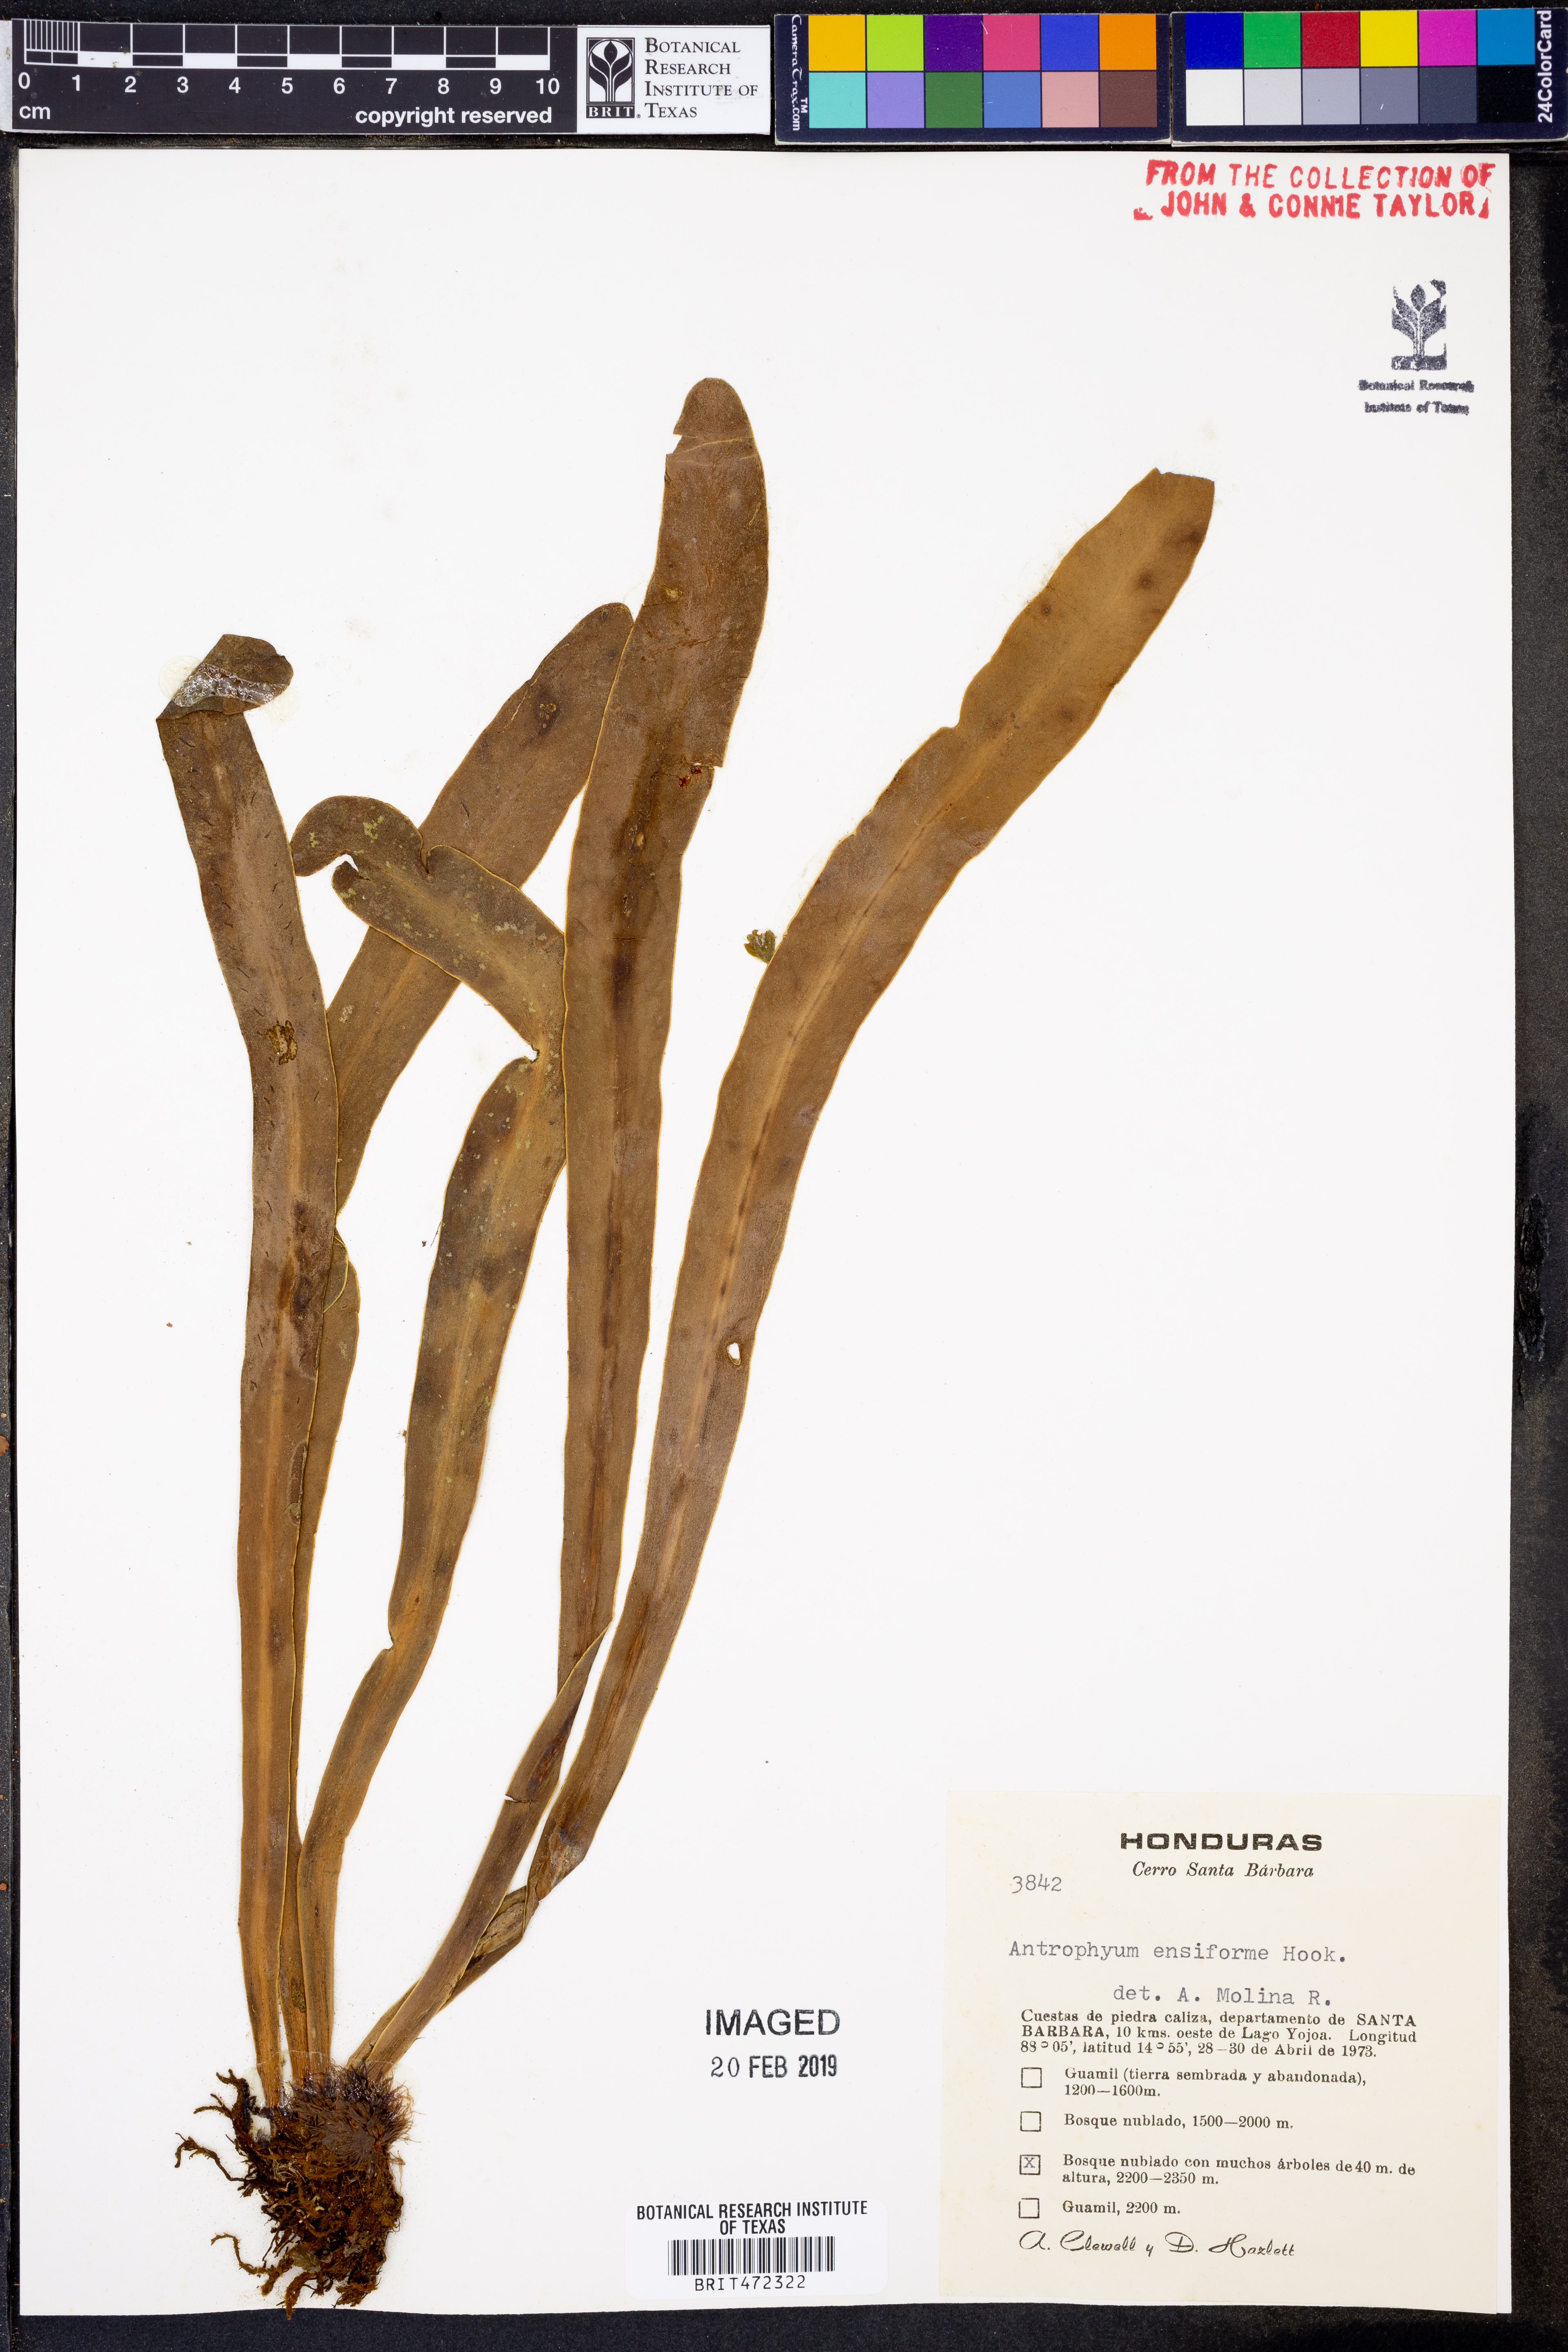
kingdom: Plantae
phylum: Tracheophyta
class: Polypodiopsida
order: Polypodiales
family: Pteridaceae
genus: Scoliosorus
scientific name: Scoliosorus ensiformis
